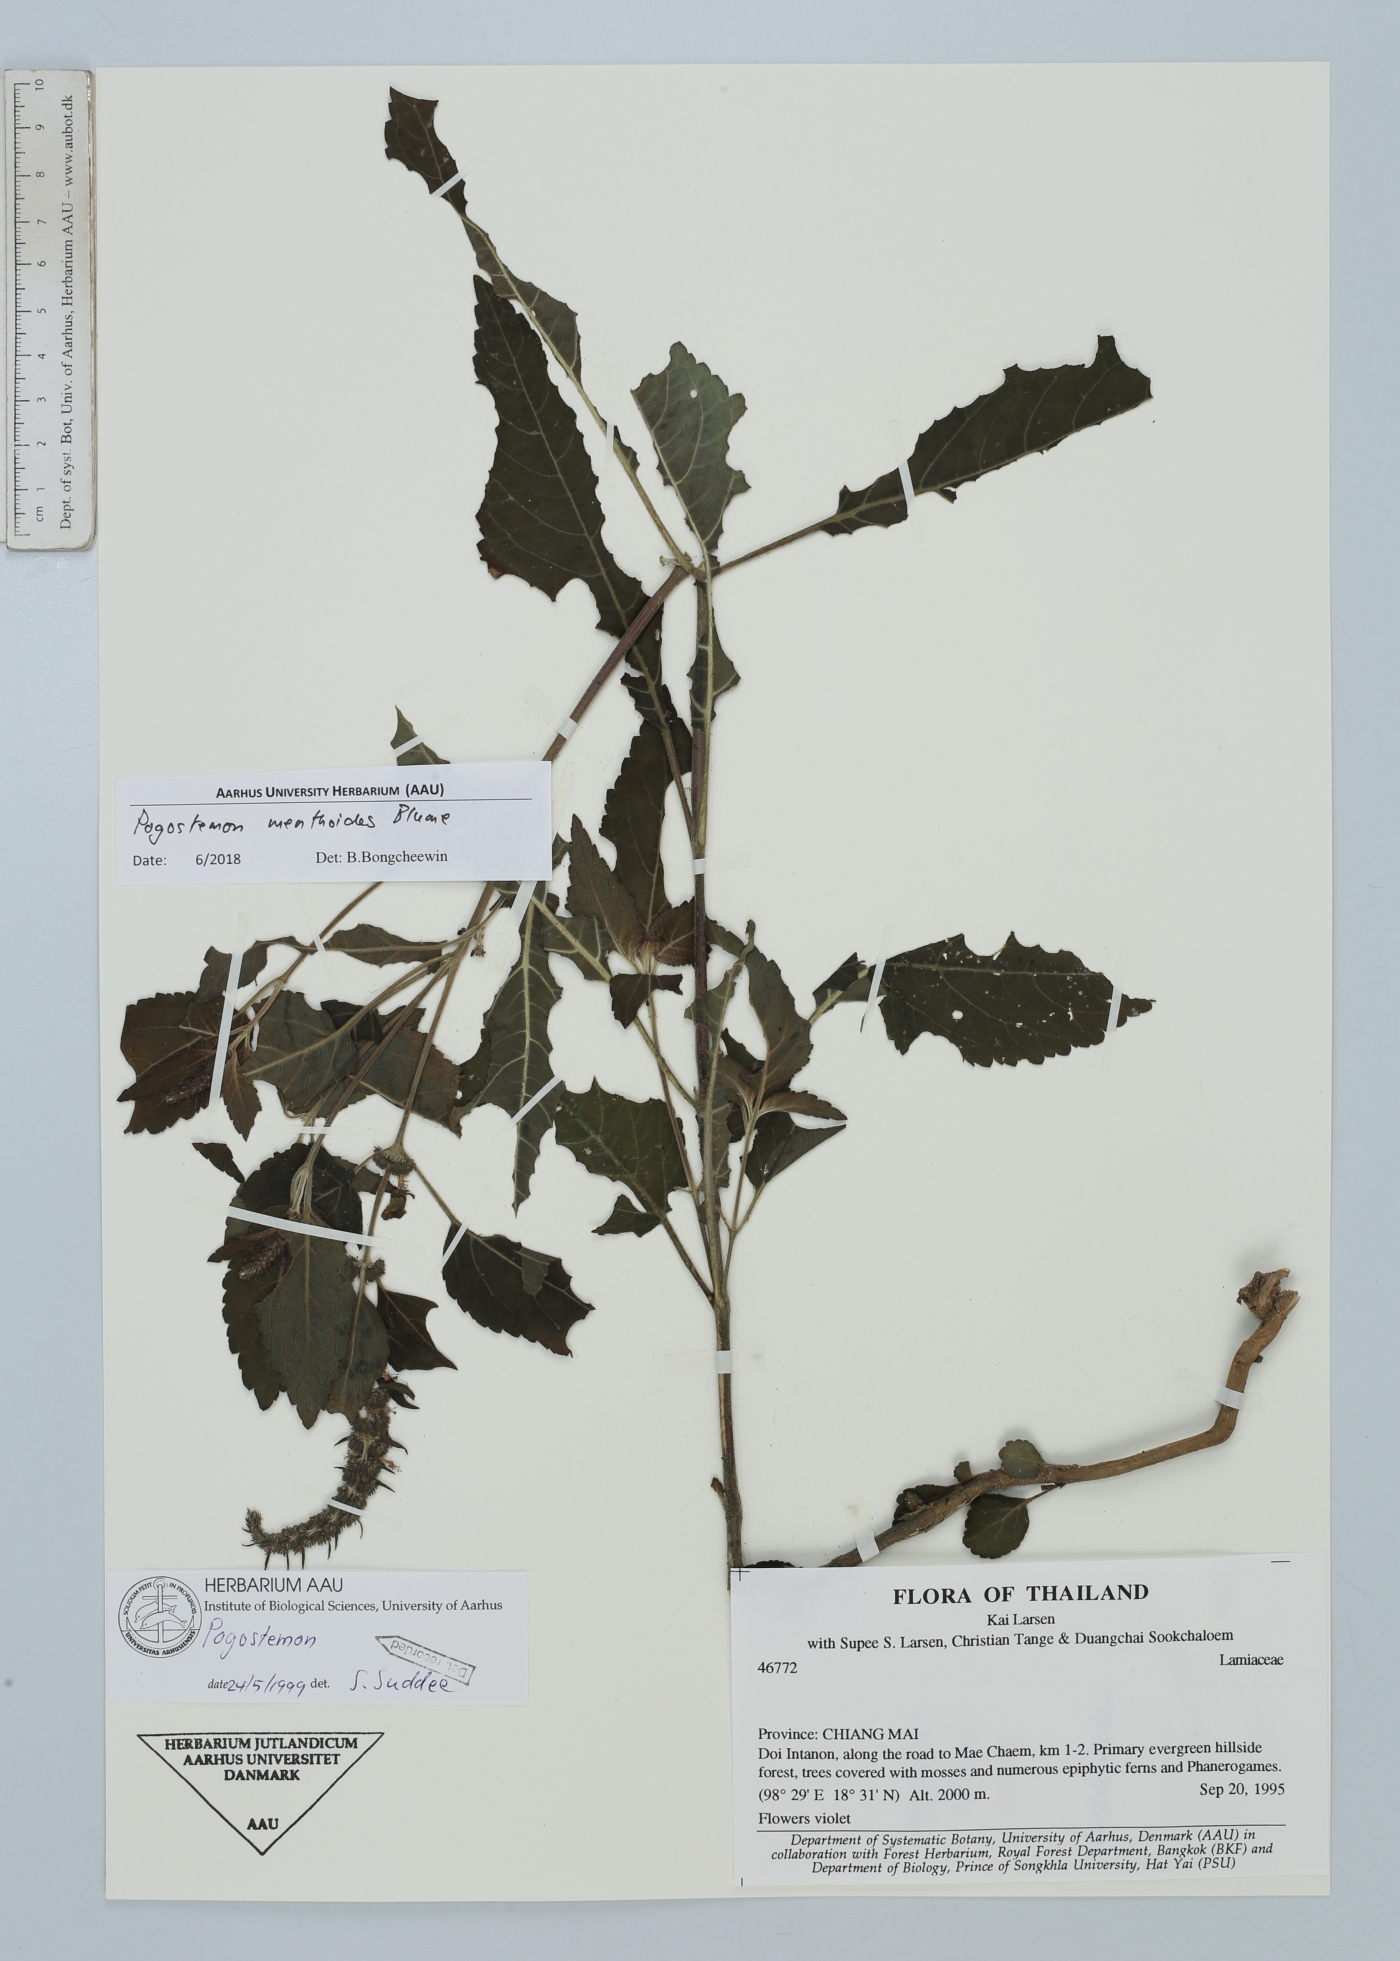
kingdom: Plantae
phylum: Tracheophyta
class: Magnoliopsida
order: Lamiales
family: Lamiaceae
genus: Pogostemon
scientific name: Pogostemon menthoides
